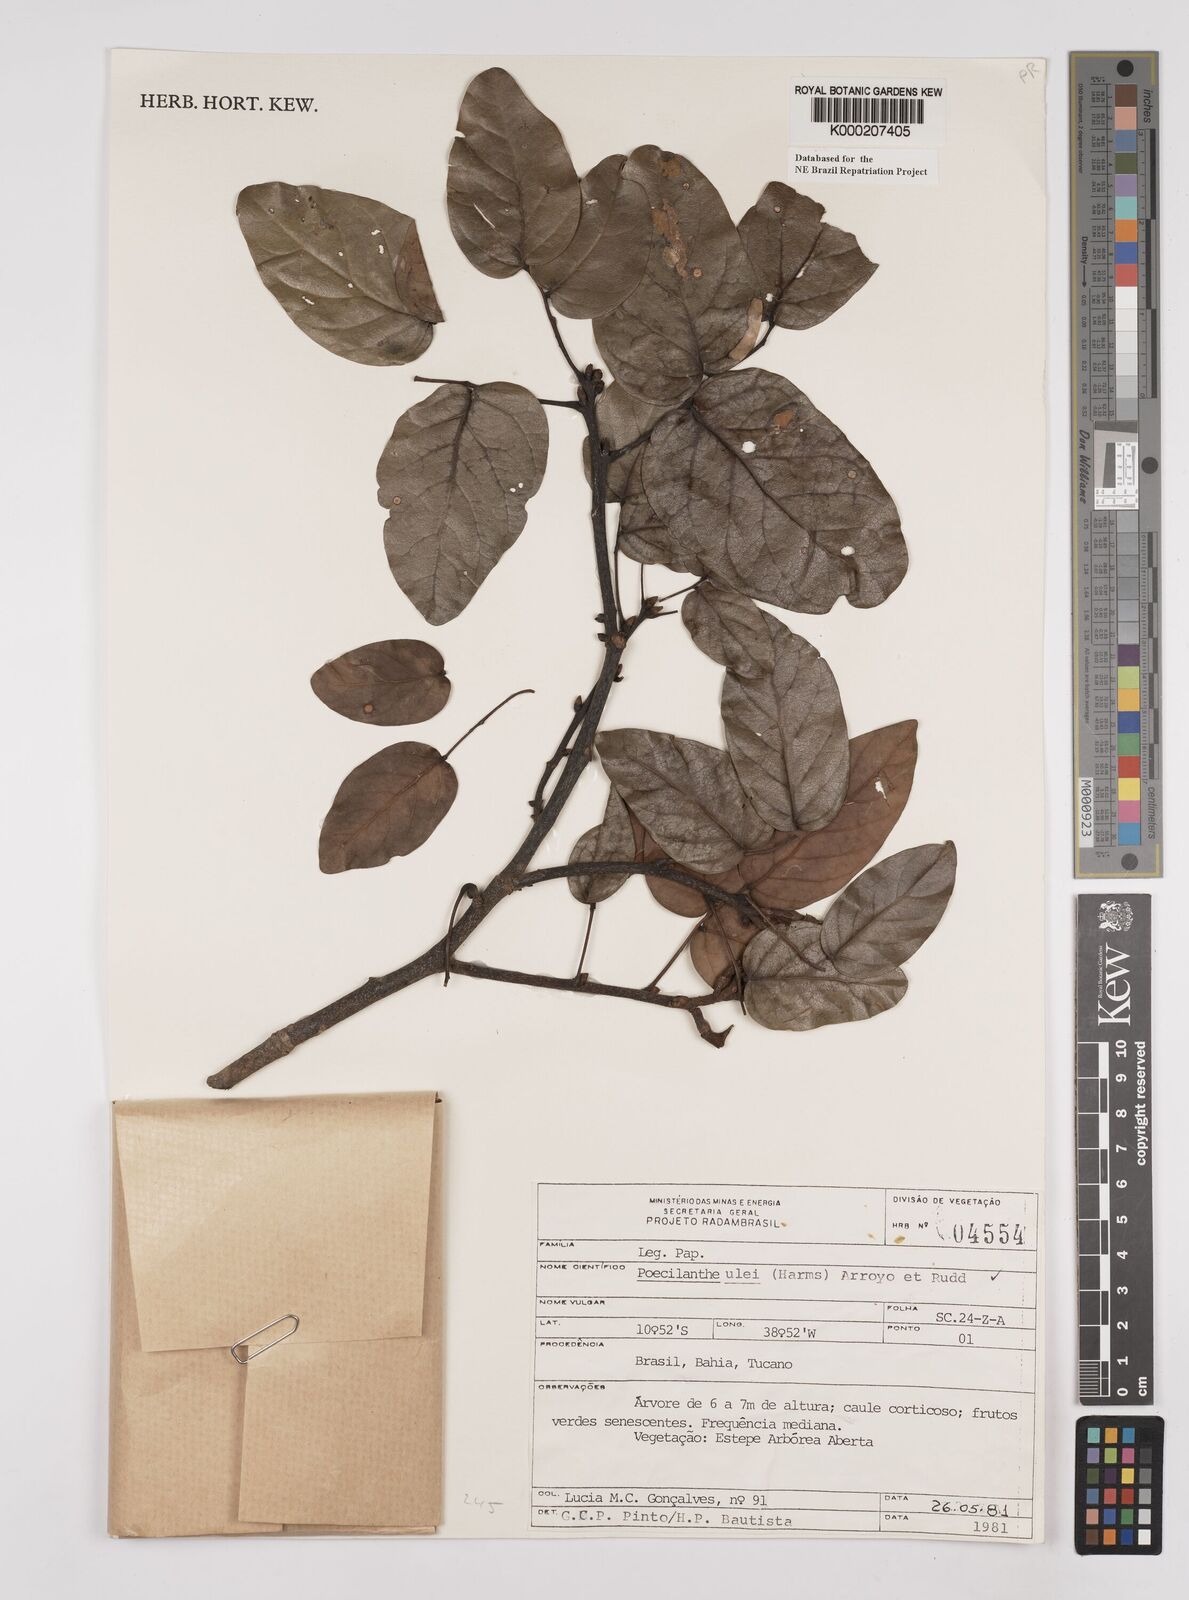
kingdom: Plantae
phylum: Tracheophyta
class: Magnoliopsida
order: Fabales
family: Fabaceae
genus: Poecilanthe
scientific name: Poecilanthe ulei
